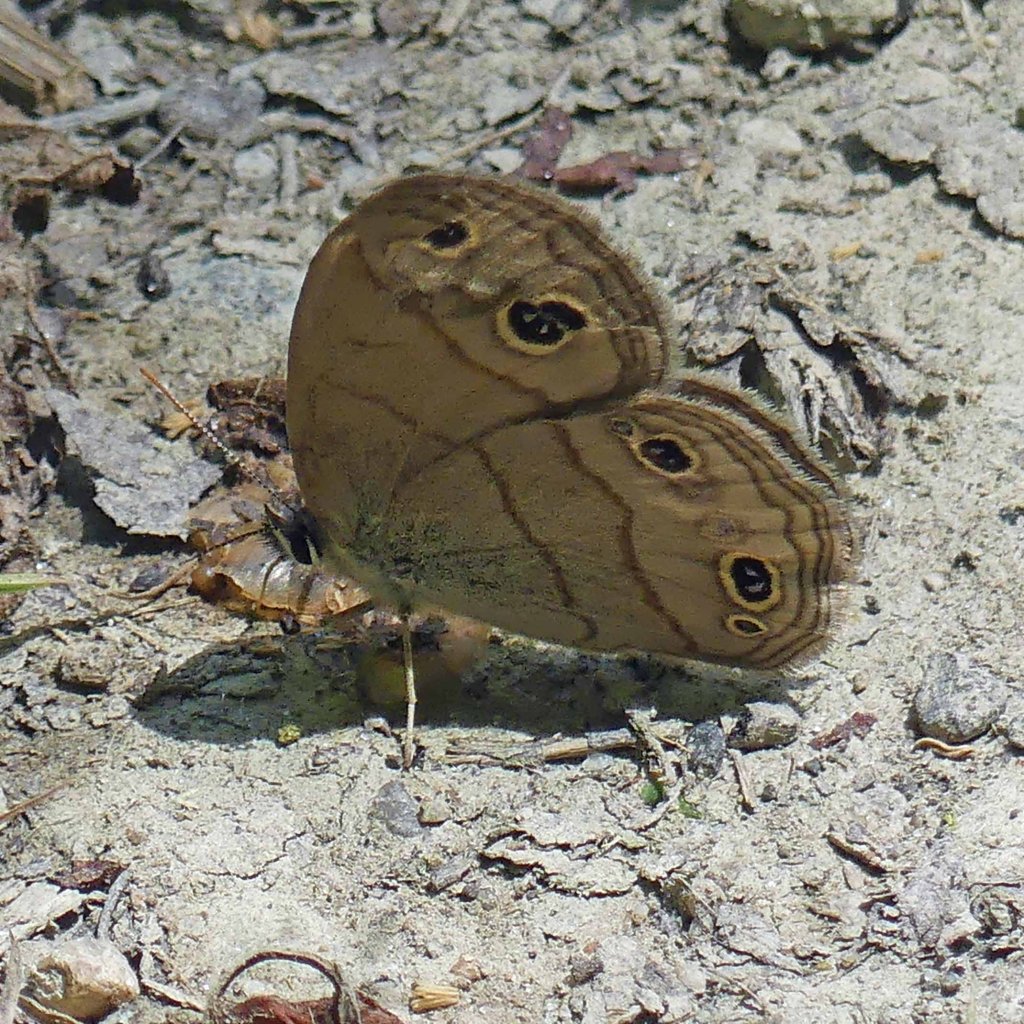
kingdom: Animalia
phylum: Arthropoda
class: Insecta
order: Lepidoptera
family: Nymphalidae
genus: Euptychia
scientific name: Euptychia cymela
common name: Little Wood Satyr
